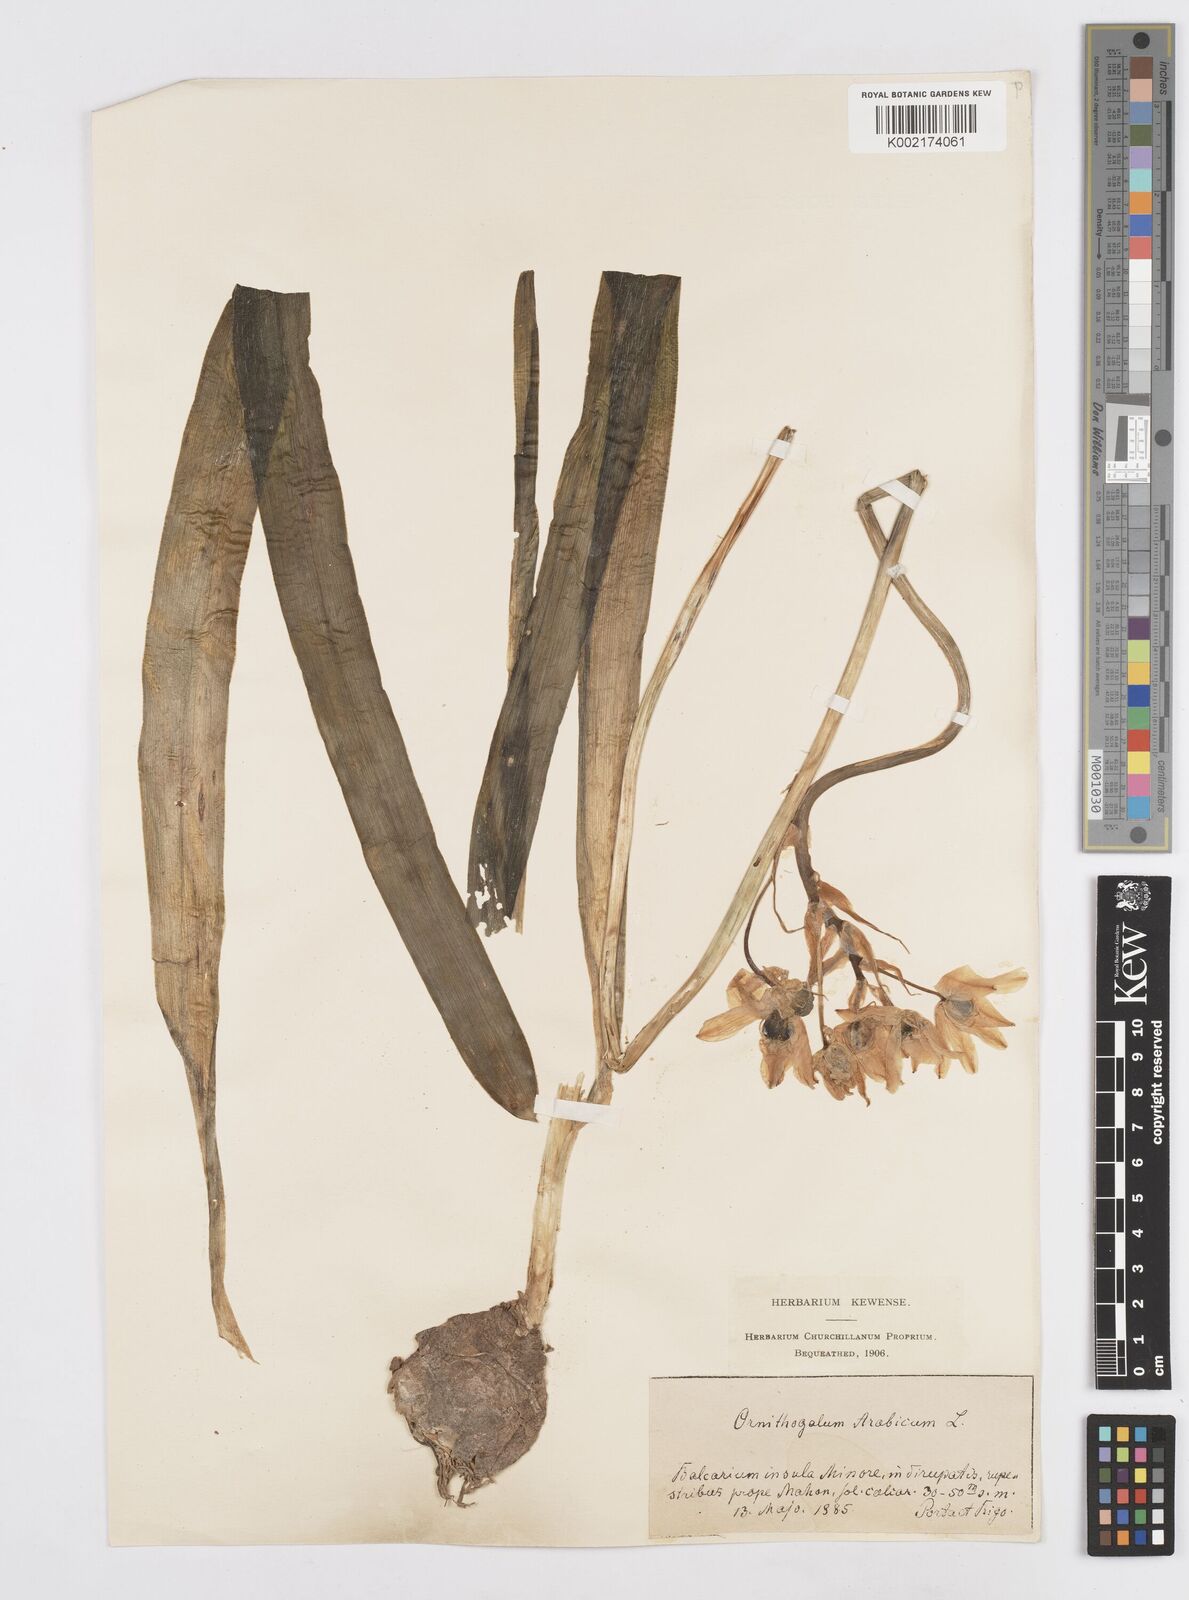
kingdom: Plantae
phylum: Tracheophyta
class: Liliopsida
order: Asparagales
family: Asparagaceae
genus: Ornithogalum
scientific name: Ornithogalum arabicum
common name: Arabian starflower
